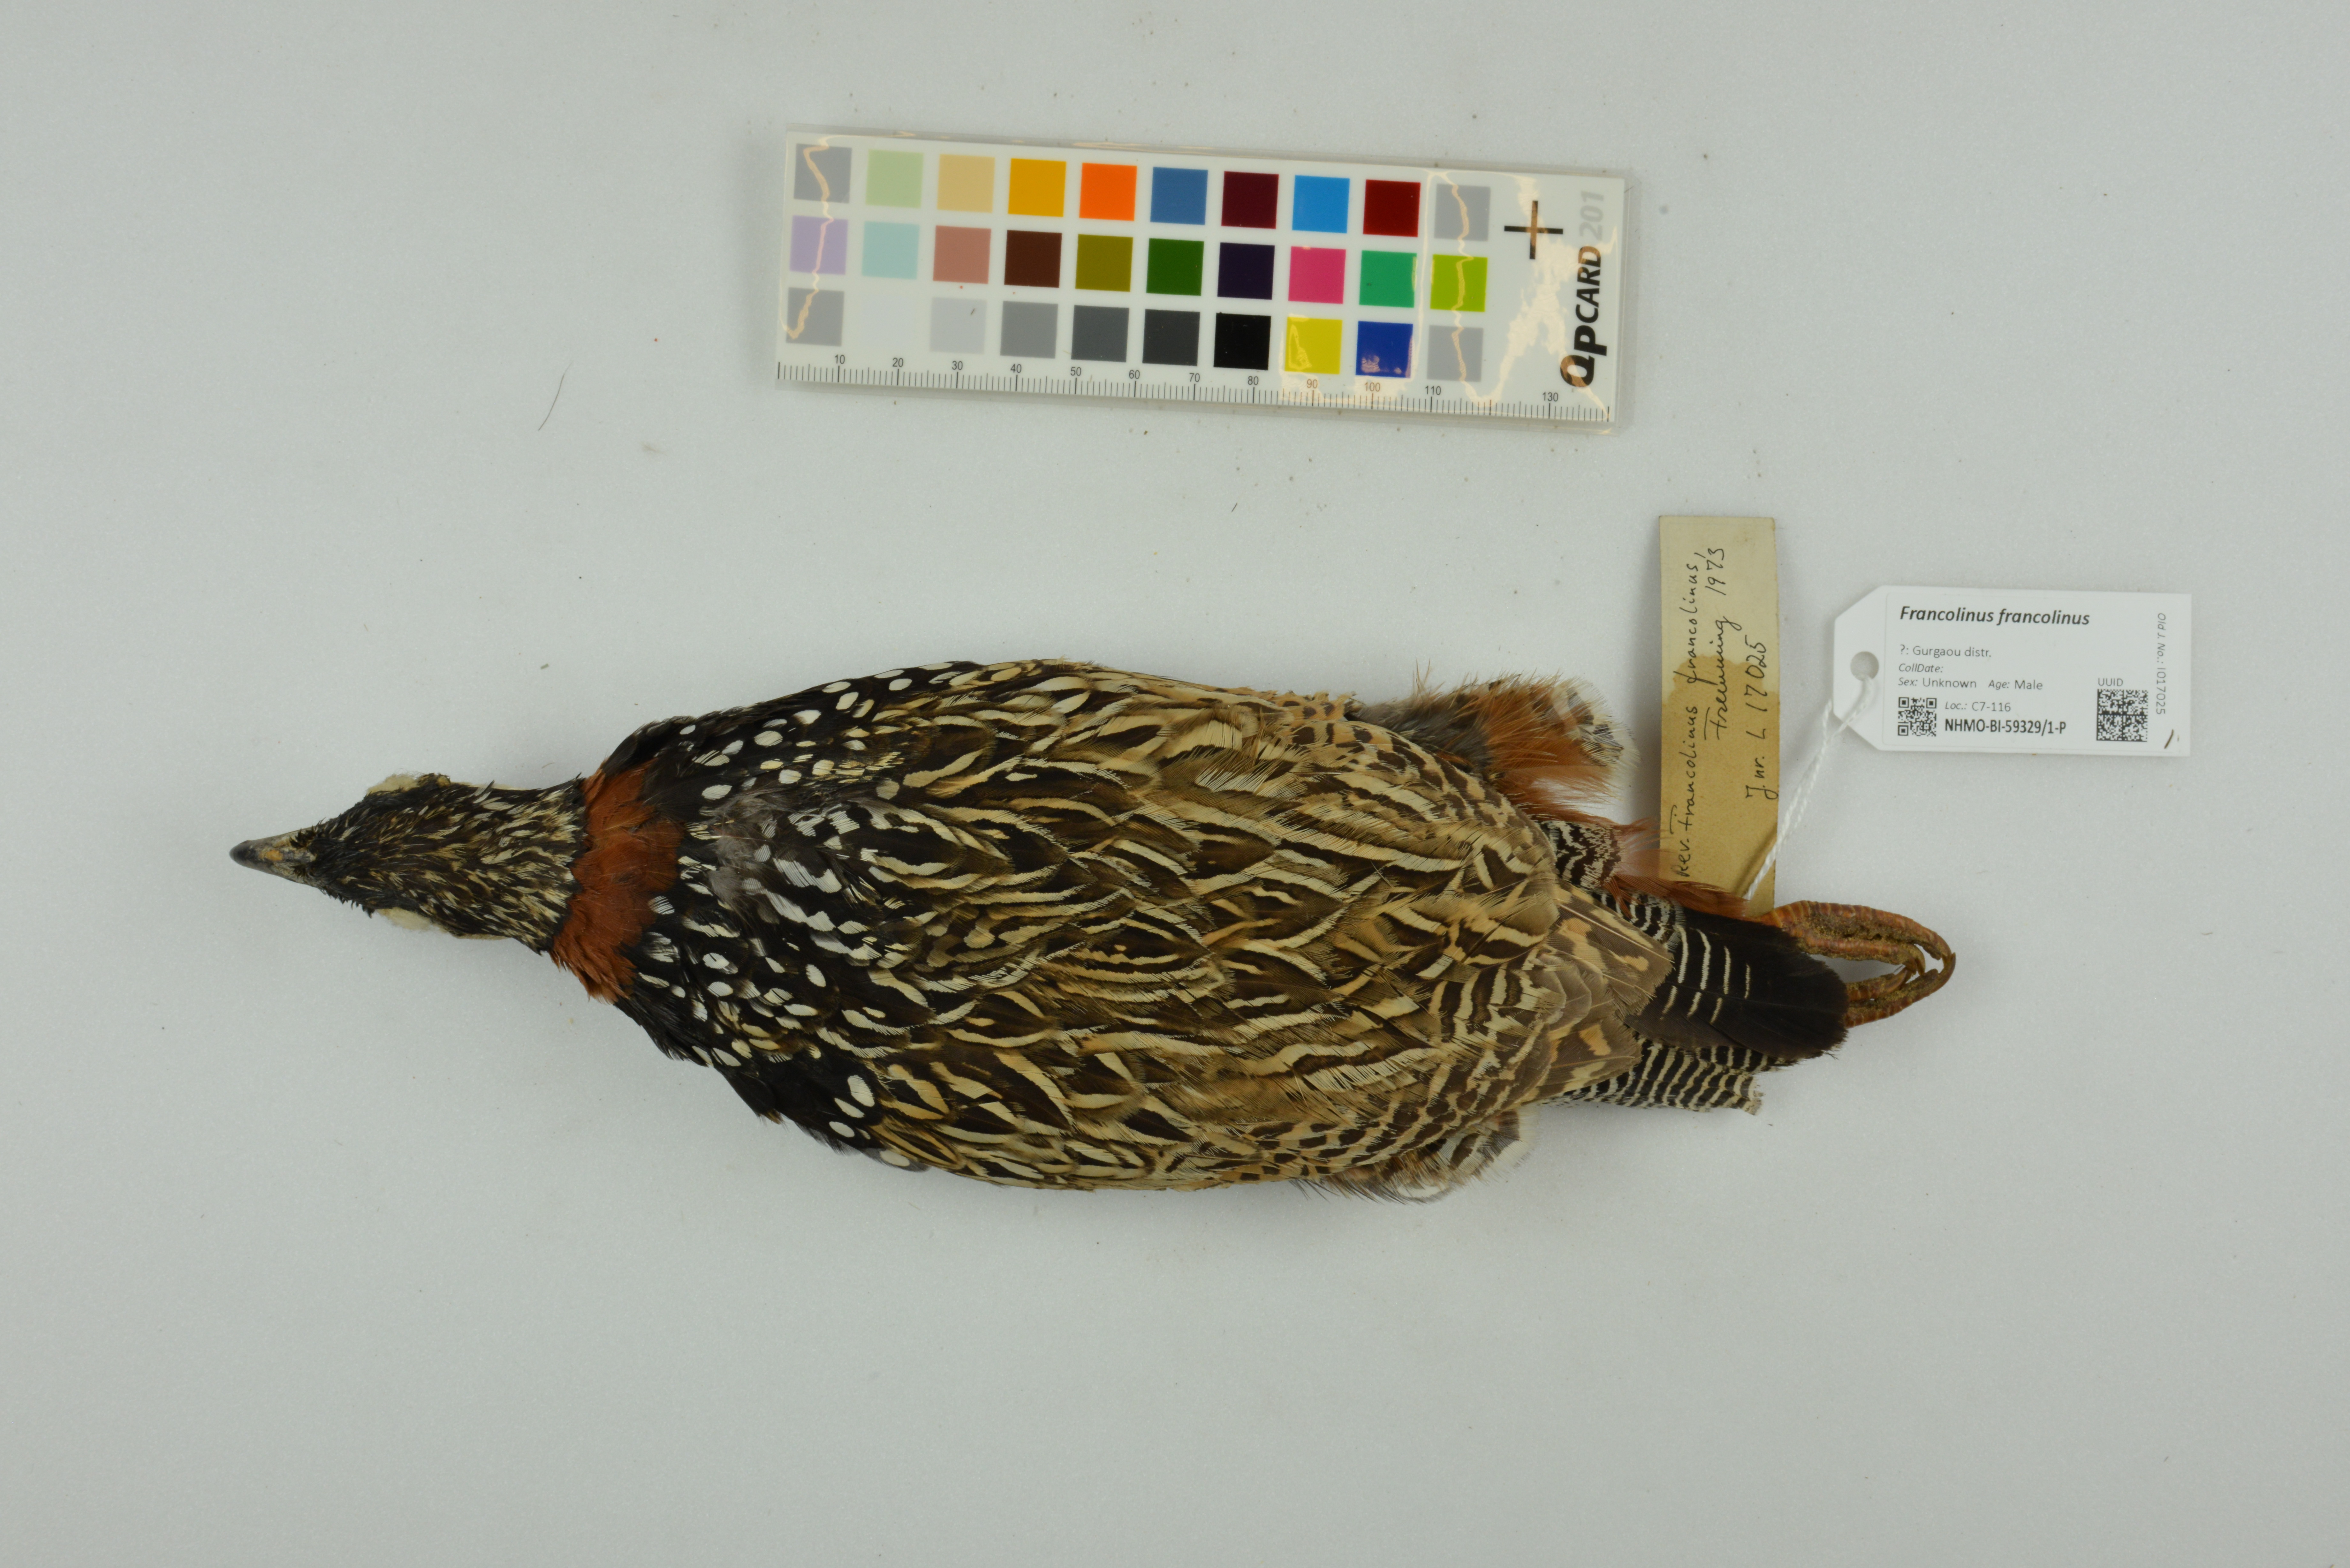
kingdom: Animalia
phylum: Chordata
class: Aves
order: Galliformes
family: Phasianidae
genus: Francolinus
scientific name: Francolinus francolinus
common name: Black francolin
